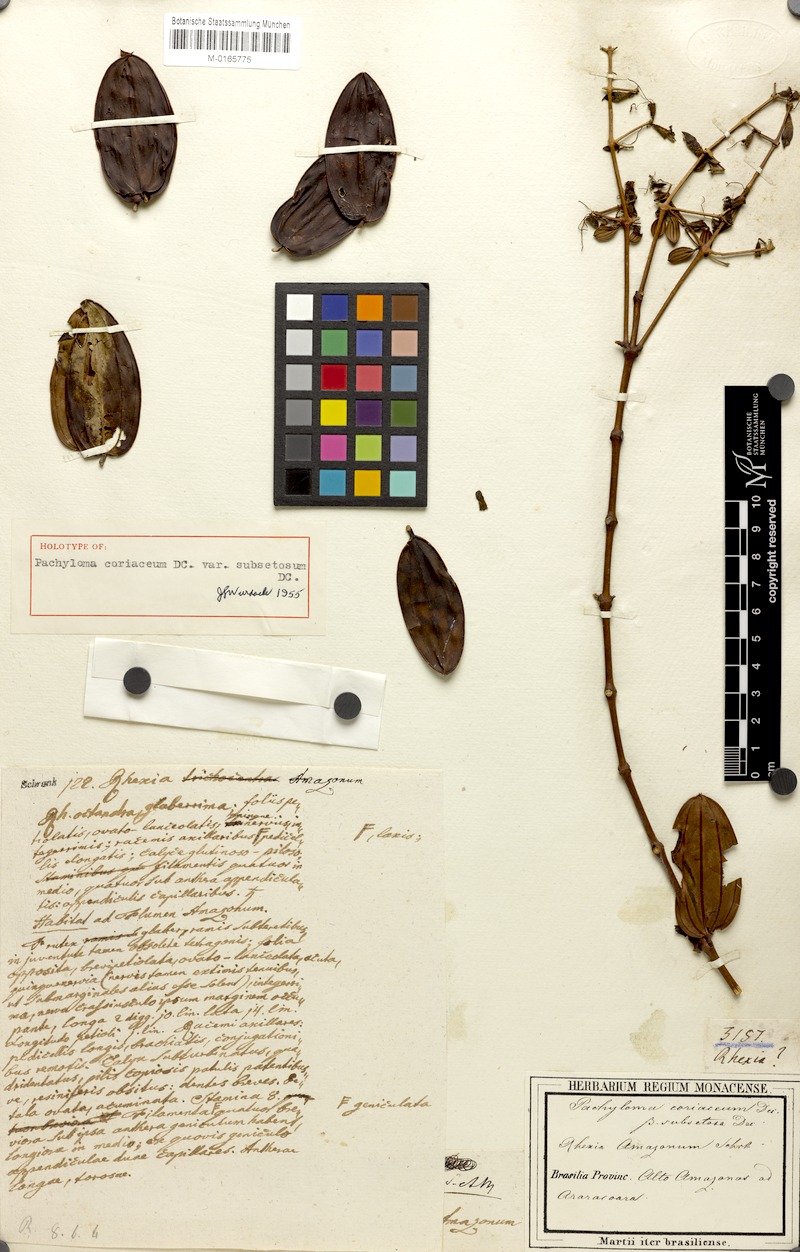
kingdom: Plantae
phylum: Tracheophyta
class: Magnoliopsida
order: Myrtales
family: Melastomataceae
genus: Pachyloma
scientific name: Pachyloma coriaceum
